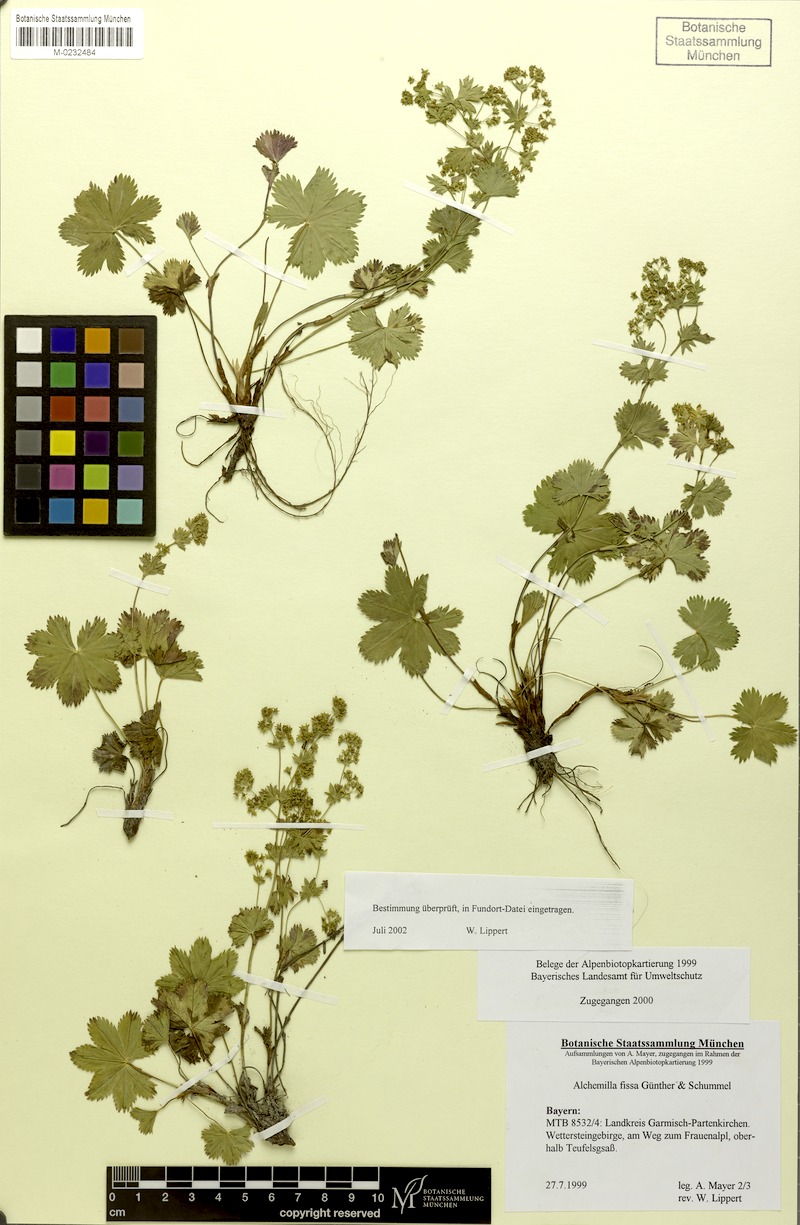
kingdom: Plantae
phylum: Tracheophyta
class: Magnoliopsida
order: Rosales
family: Rosaceae
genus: Alchemilla
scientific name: Alchemilla fissa
